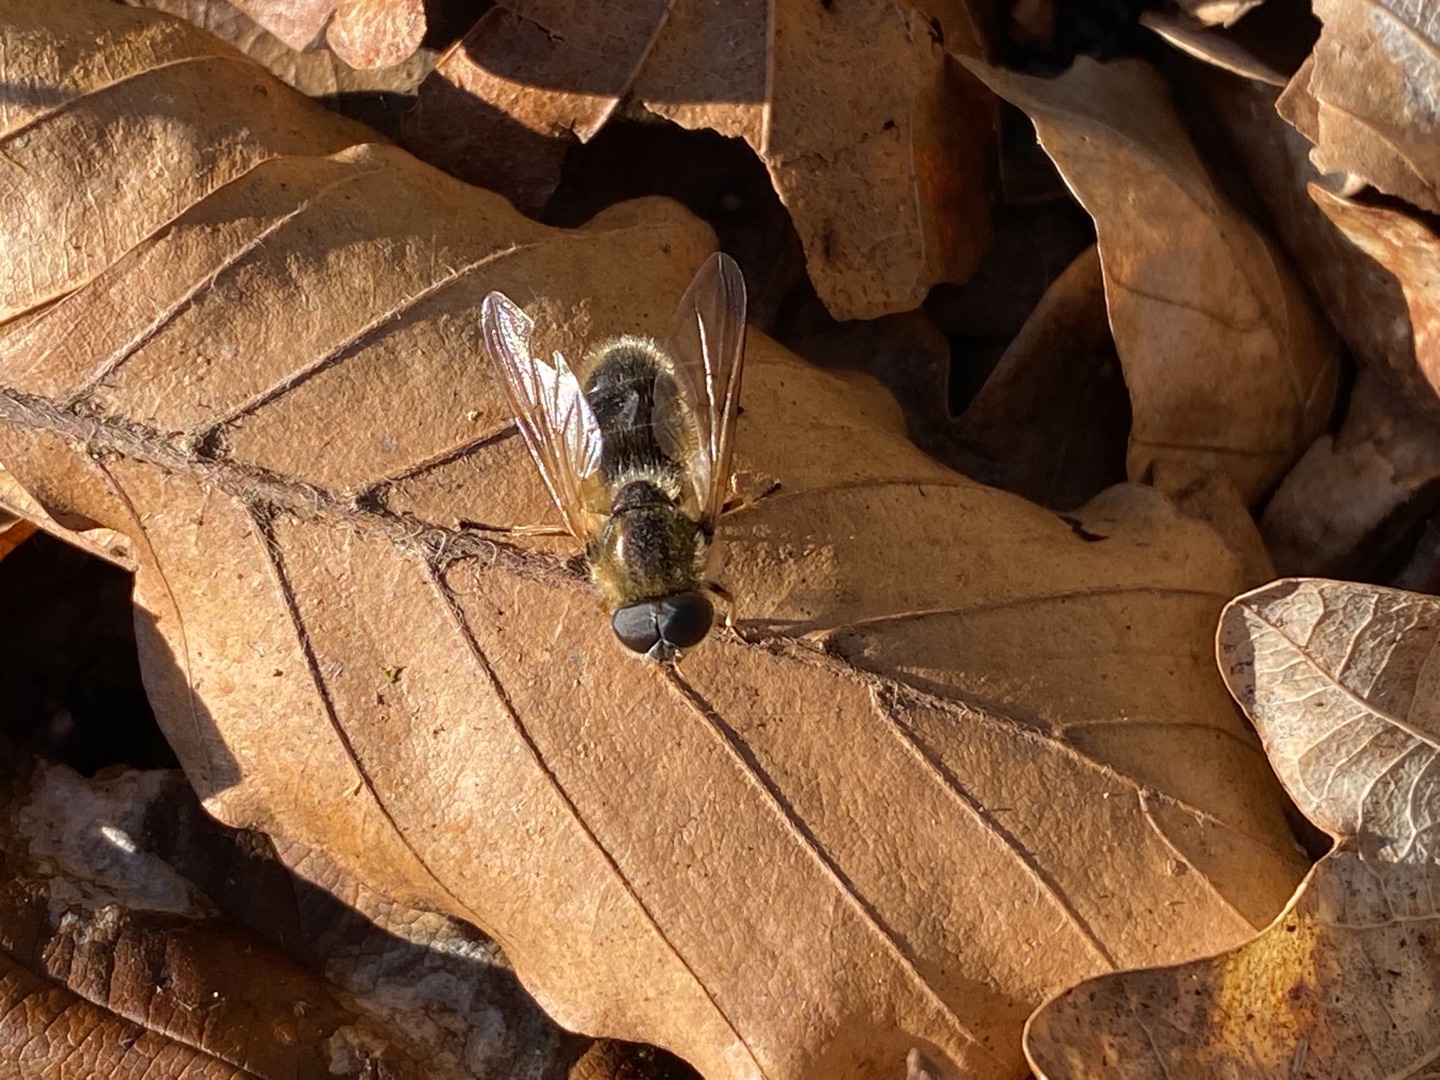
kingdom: Animalia
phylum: Arthropoda
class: Insecta
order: Diptera
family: Syrphidae
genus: Cheilosia
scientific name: Cheilosia albipila
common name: Hvidhåret urtesvirreflue
